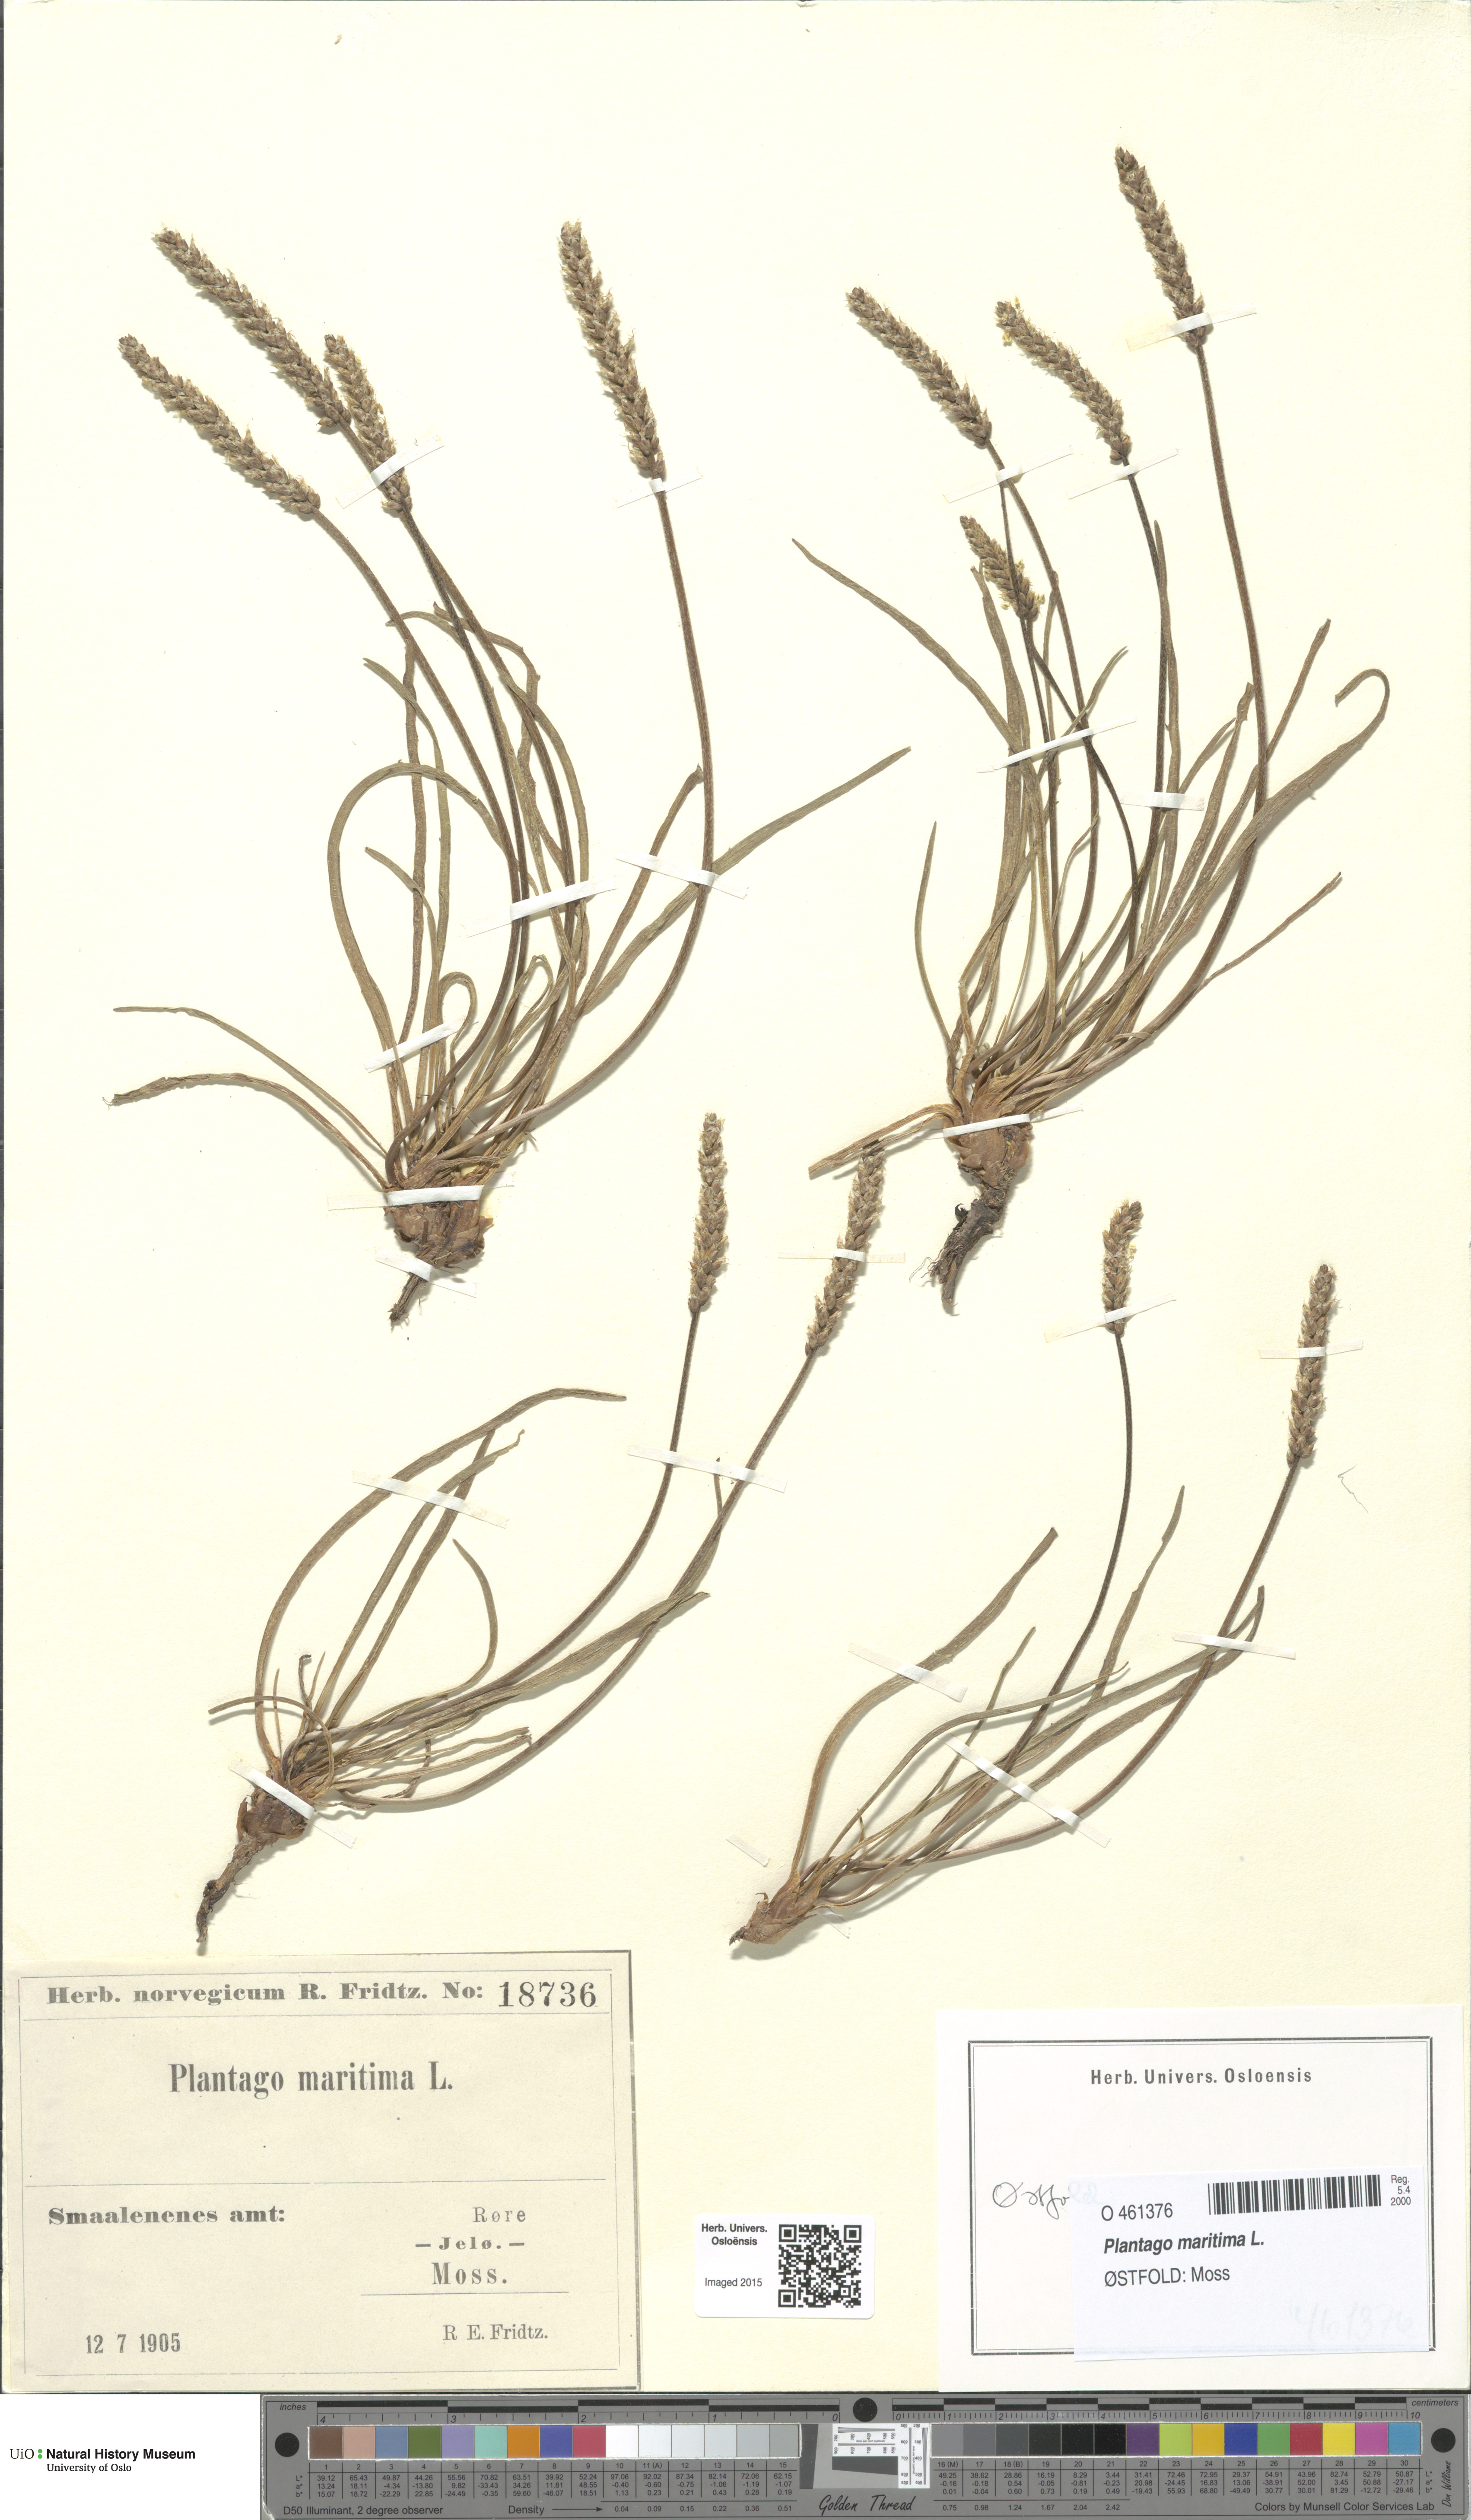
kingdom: Plantae
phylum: Tracheophyta
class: Magnoliopsida
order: Lamiales
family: Plantaginaceae
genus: Plantago
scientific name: Plantago maritima
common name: Sea plantain
